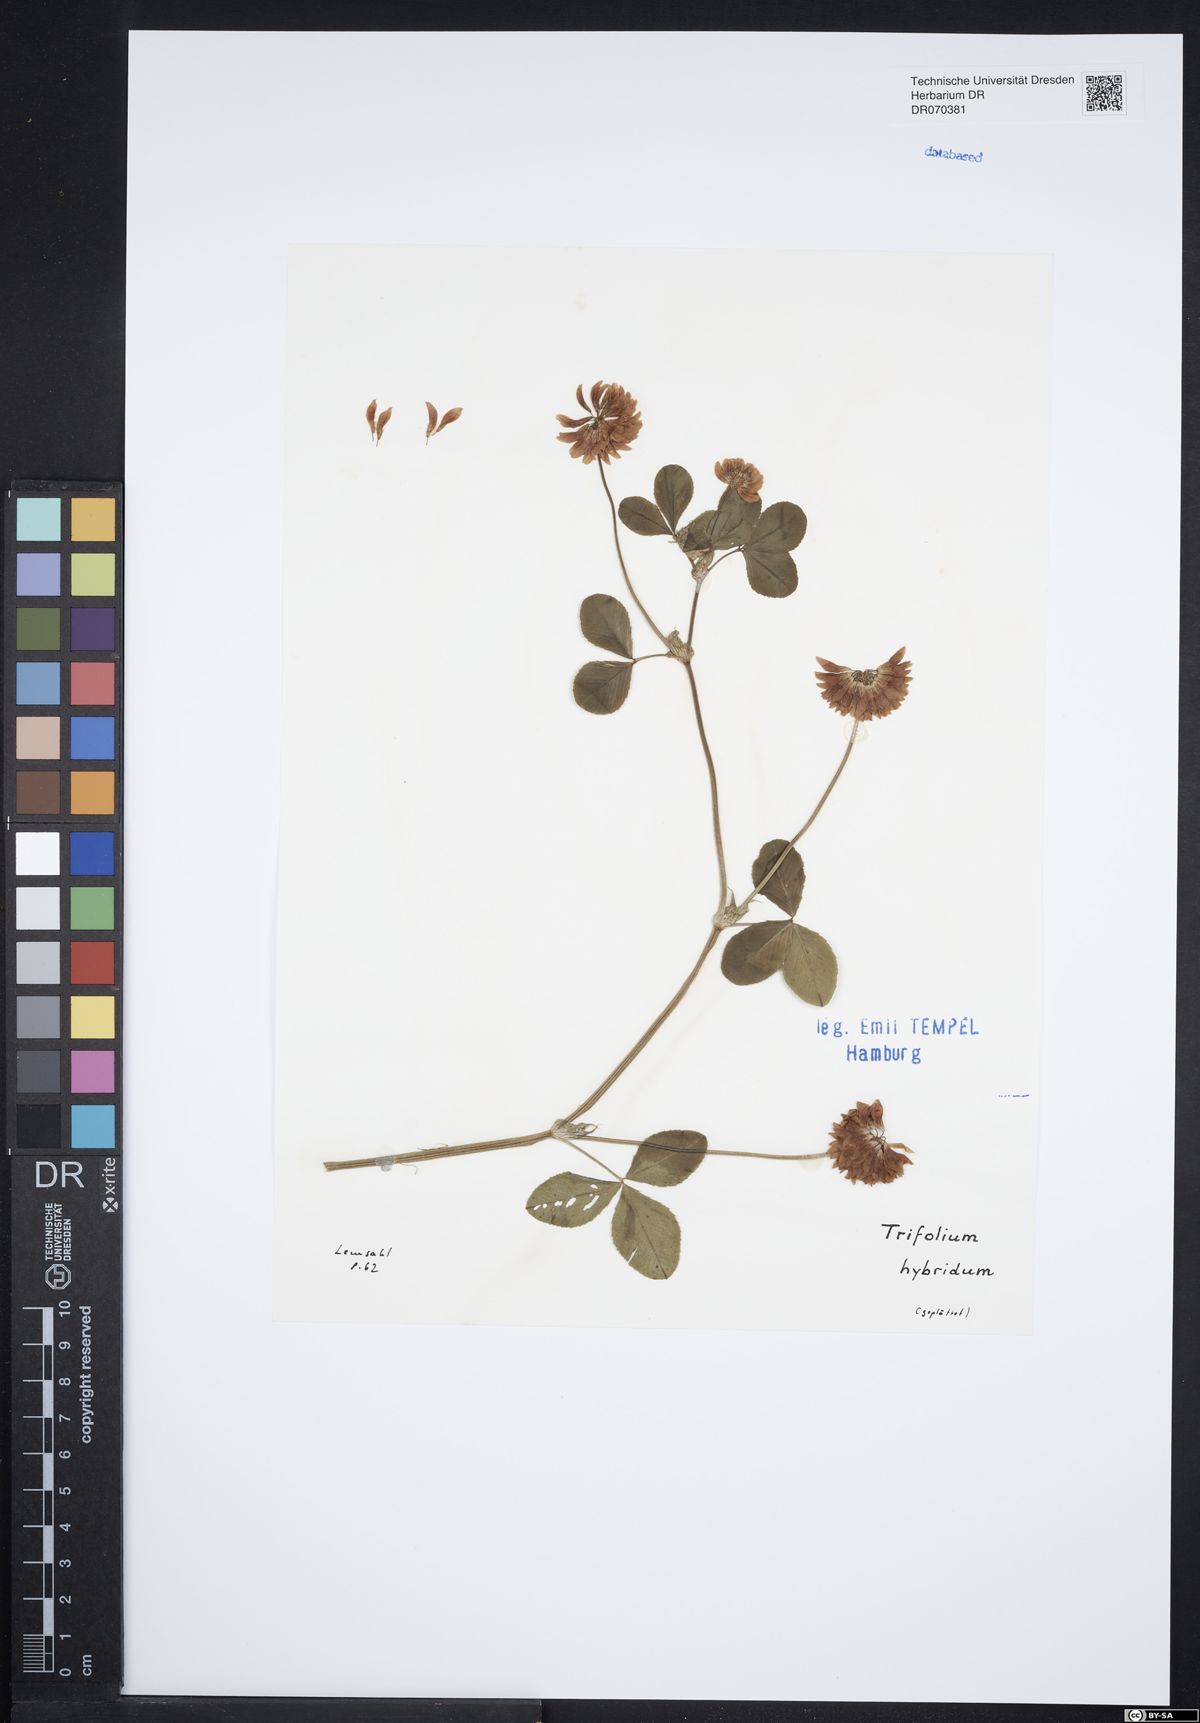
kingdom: Plantae
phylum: Tracheophyta
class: Magnoliopsida
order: Fabales
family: Fabaceae
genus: Trifolium
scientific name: Trifolium hybridum
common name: Alsike clover
